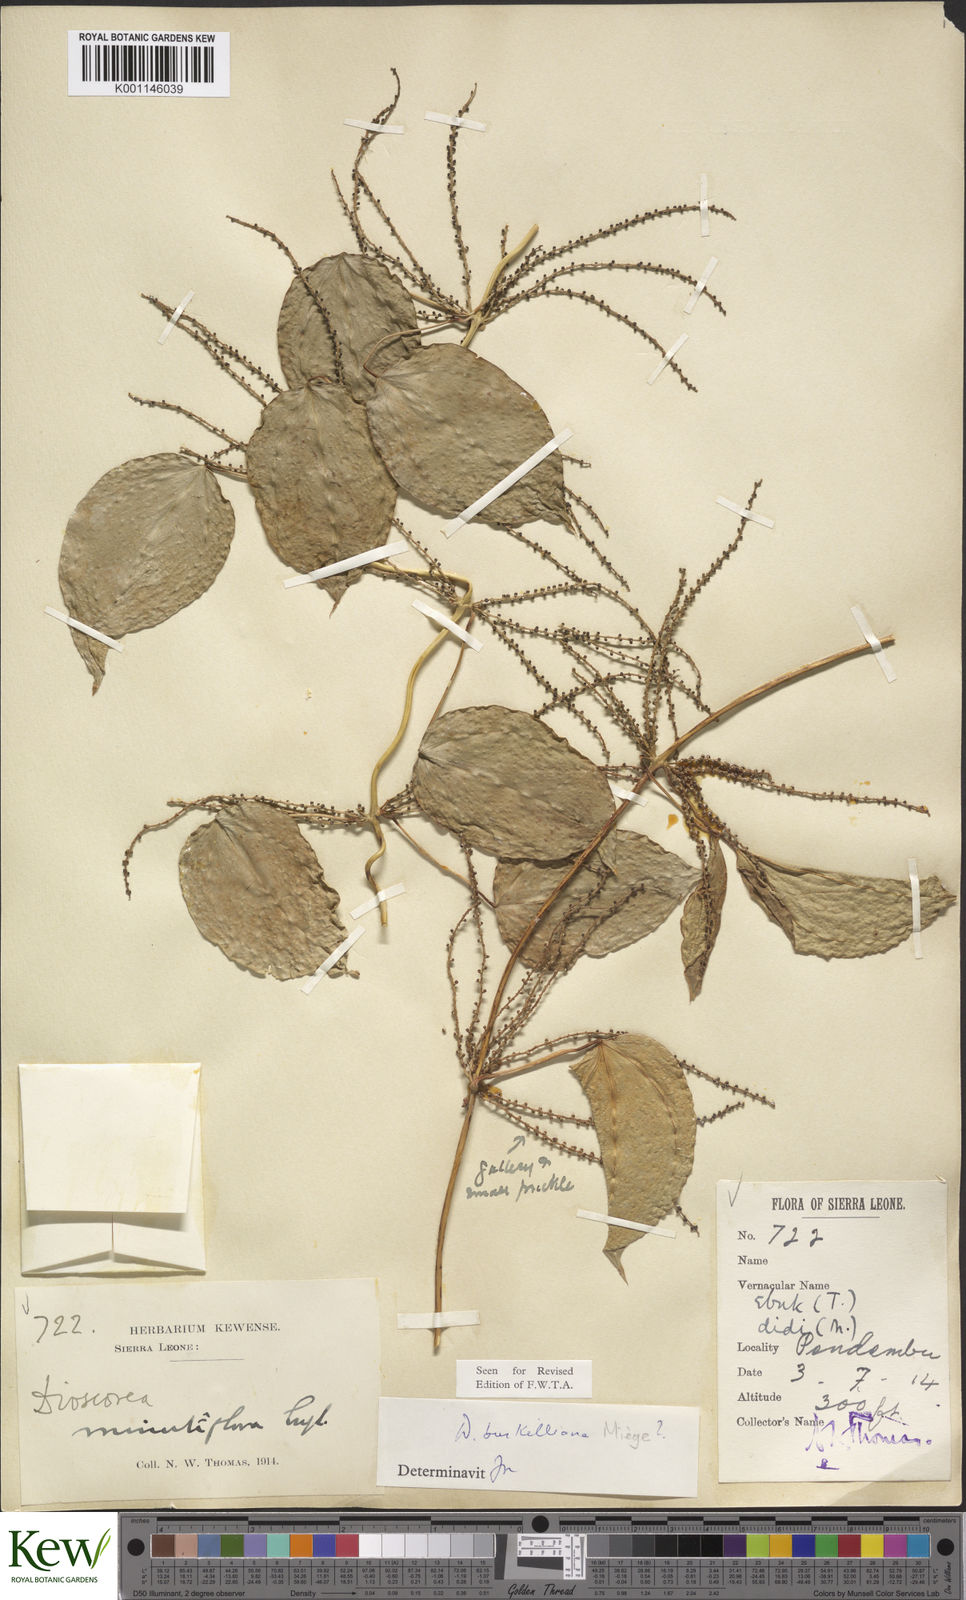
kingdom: Plantae
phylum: Tracheophyta
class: Liliopsida
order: Dioscoreales
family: Dioscoreaceae
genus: Dioscorea
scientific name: Dioscorea
